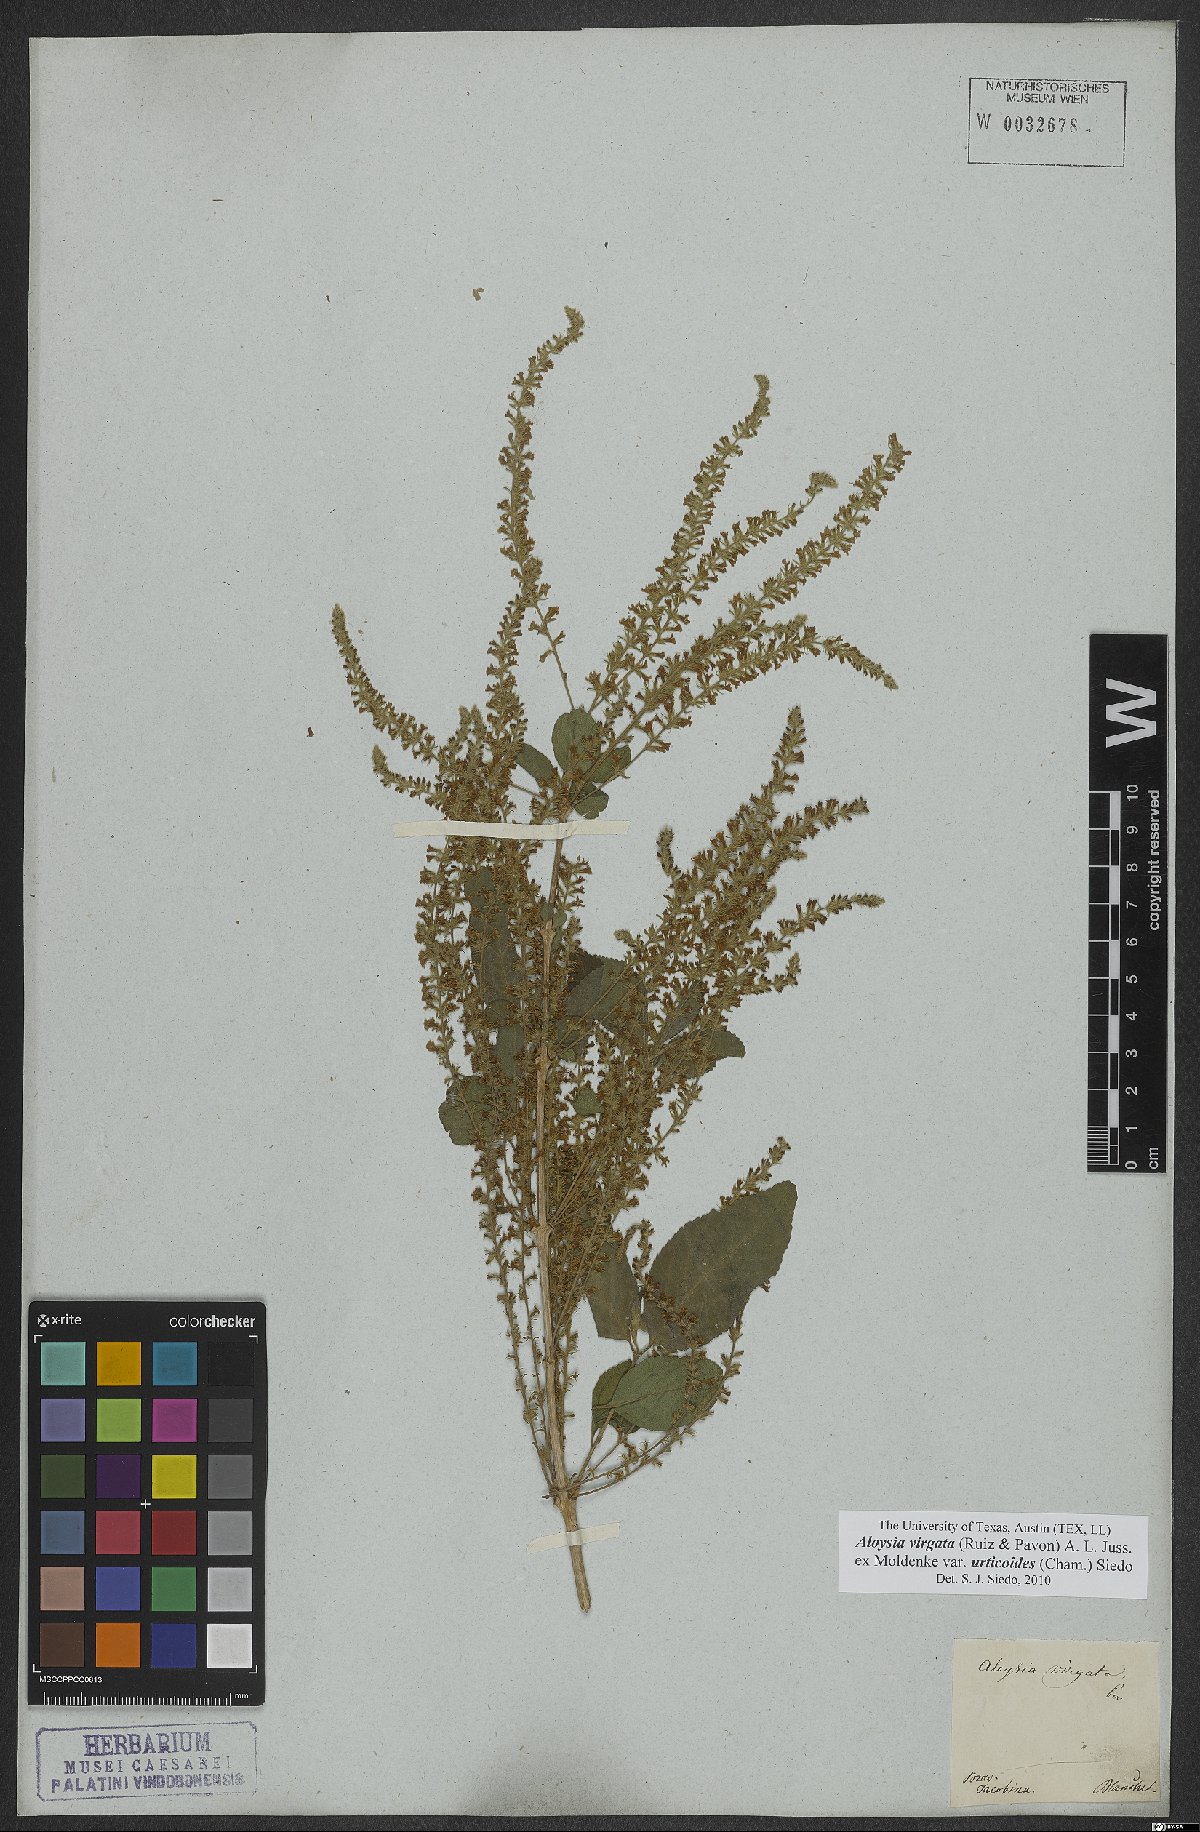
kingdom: Plantae
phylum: Tracheophyta
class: Magnoliopsida
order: Lamiales
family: Verbenaceae
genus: Aloysia
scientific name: Aloysia virgata
